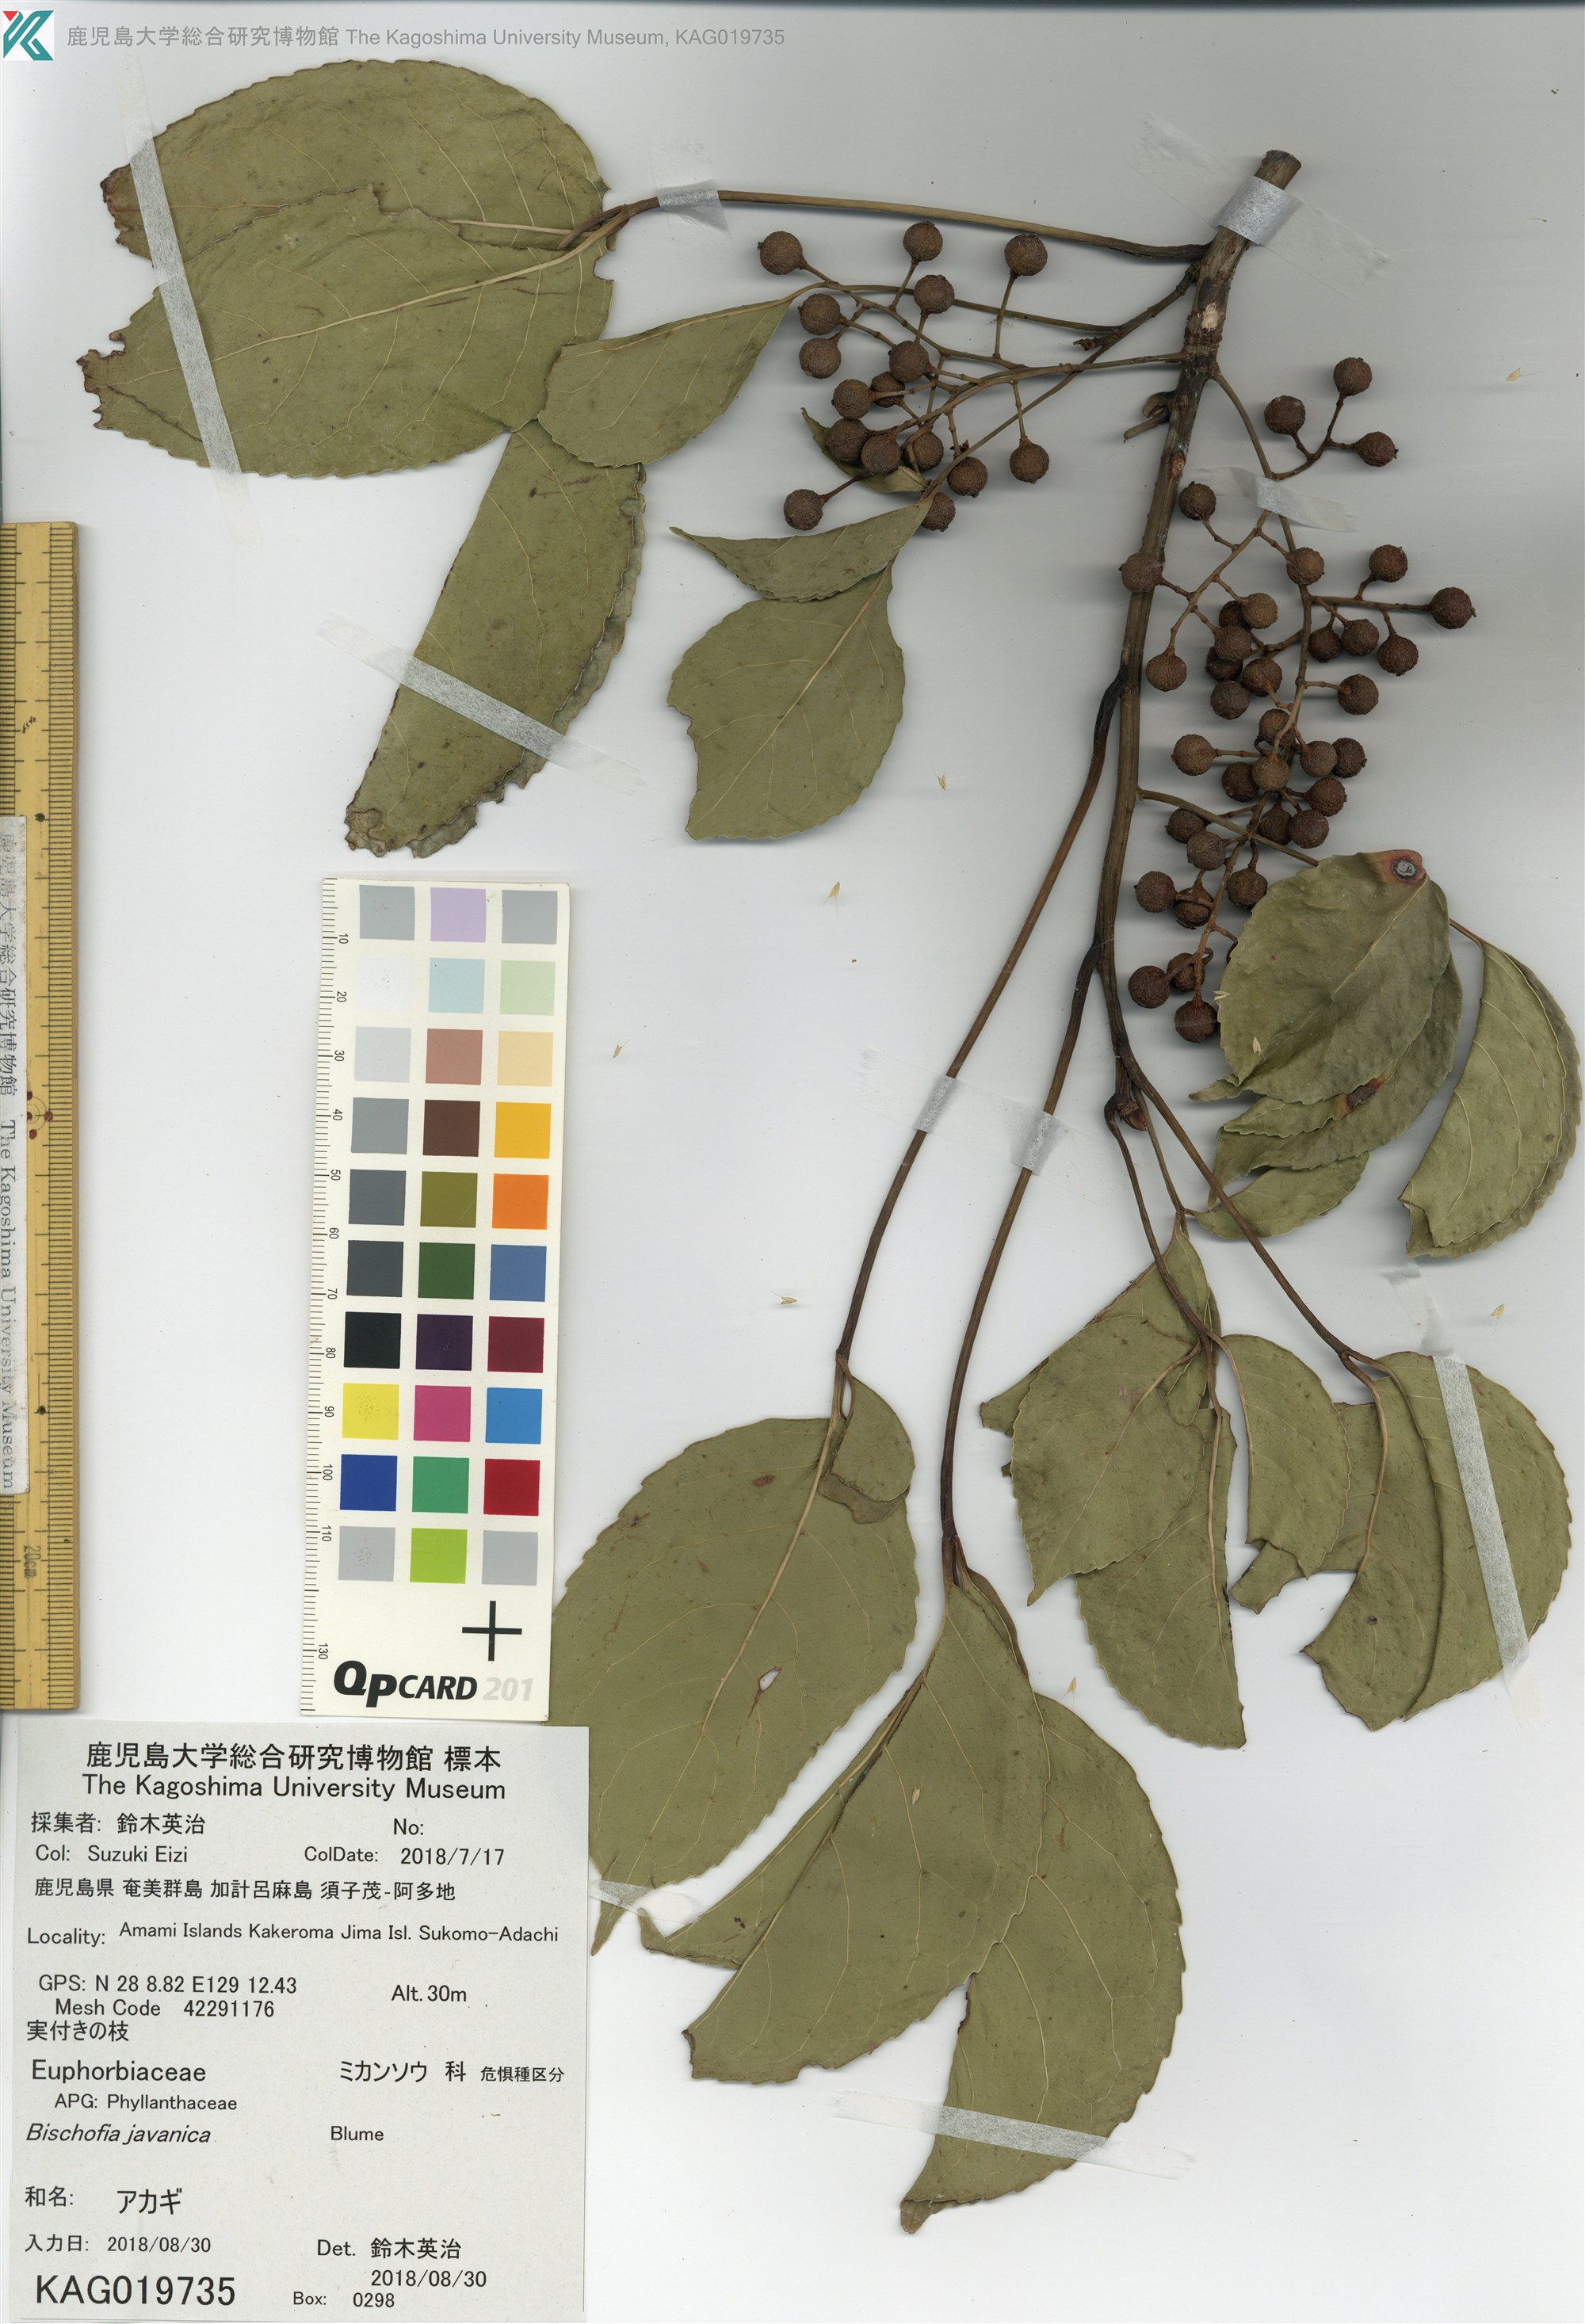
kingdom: Plantae
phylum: Tracheophyta
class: Magnoliopsida
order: Malpighiales
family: Phyllanthaceae
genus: Bischofia
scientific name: Bischofia javanica
